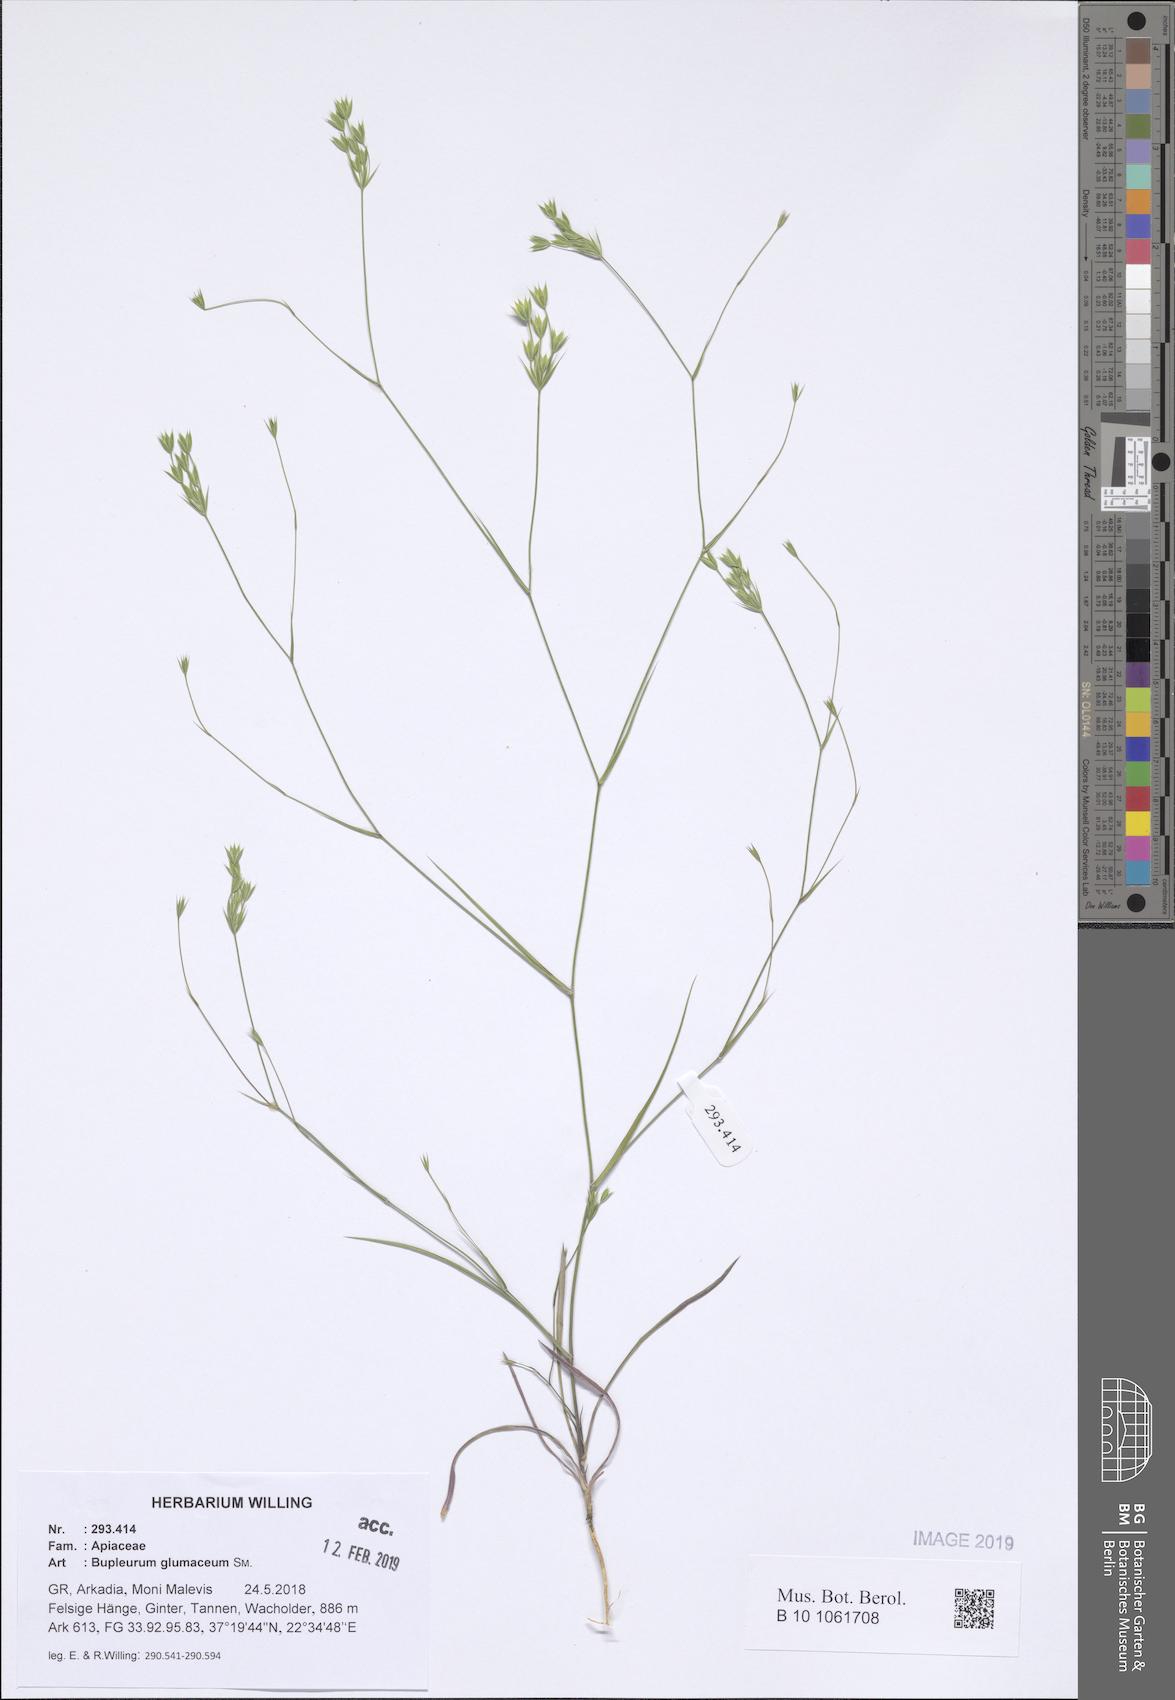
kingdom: Plantae
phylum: Tracheophyta
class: Magnoliopsida
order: Apiales
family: Apiaceae
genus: Bupleurum
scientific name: Bupleurum glumaceum
